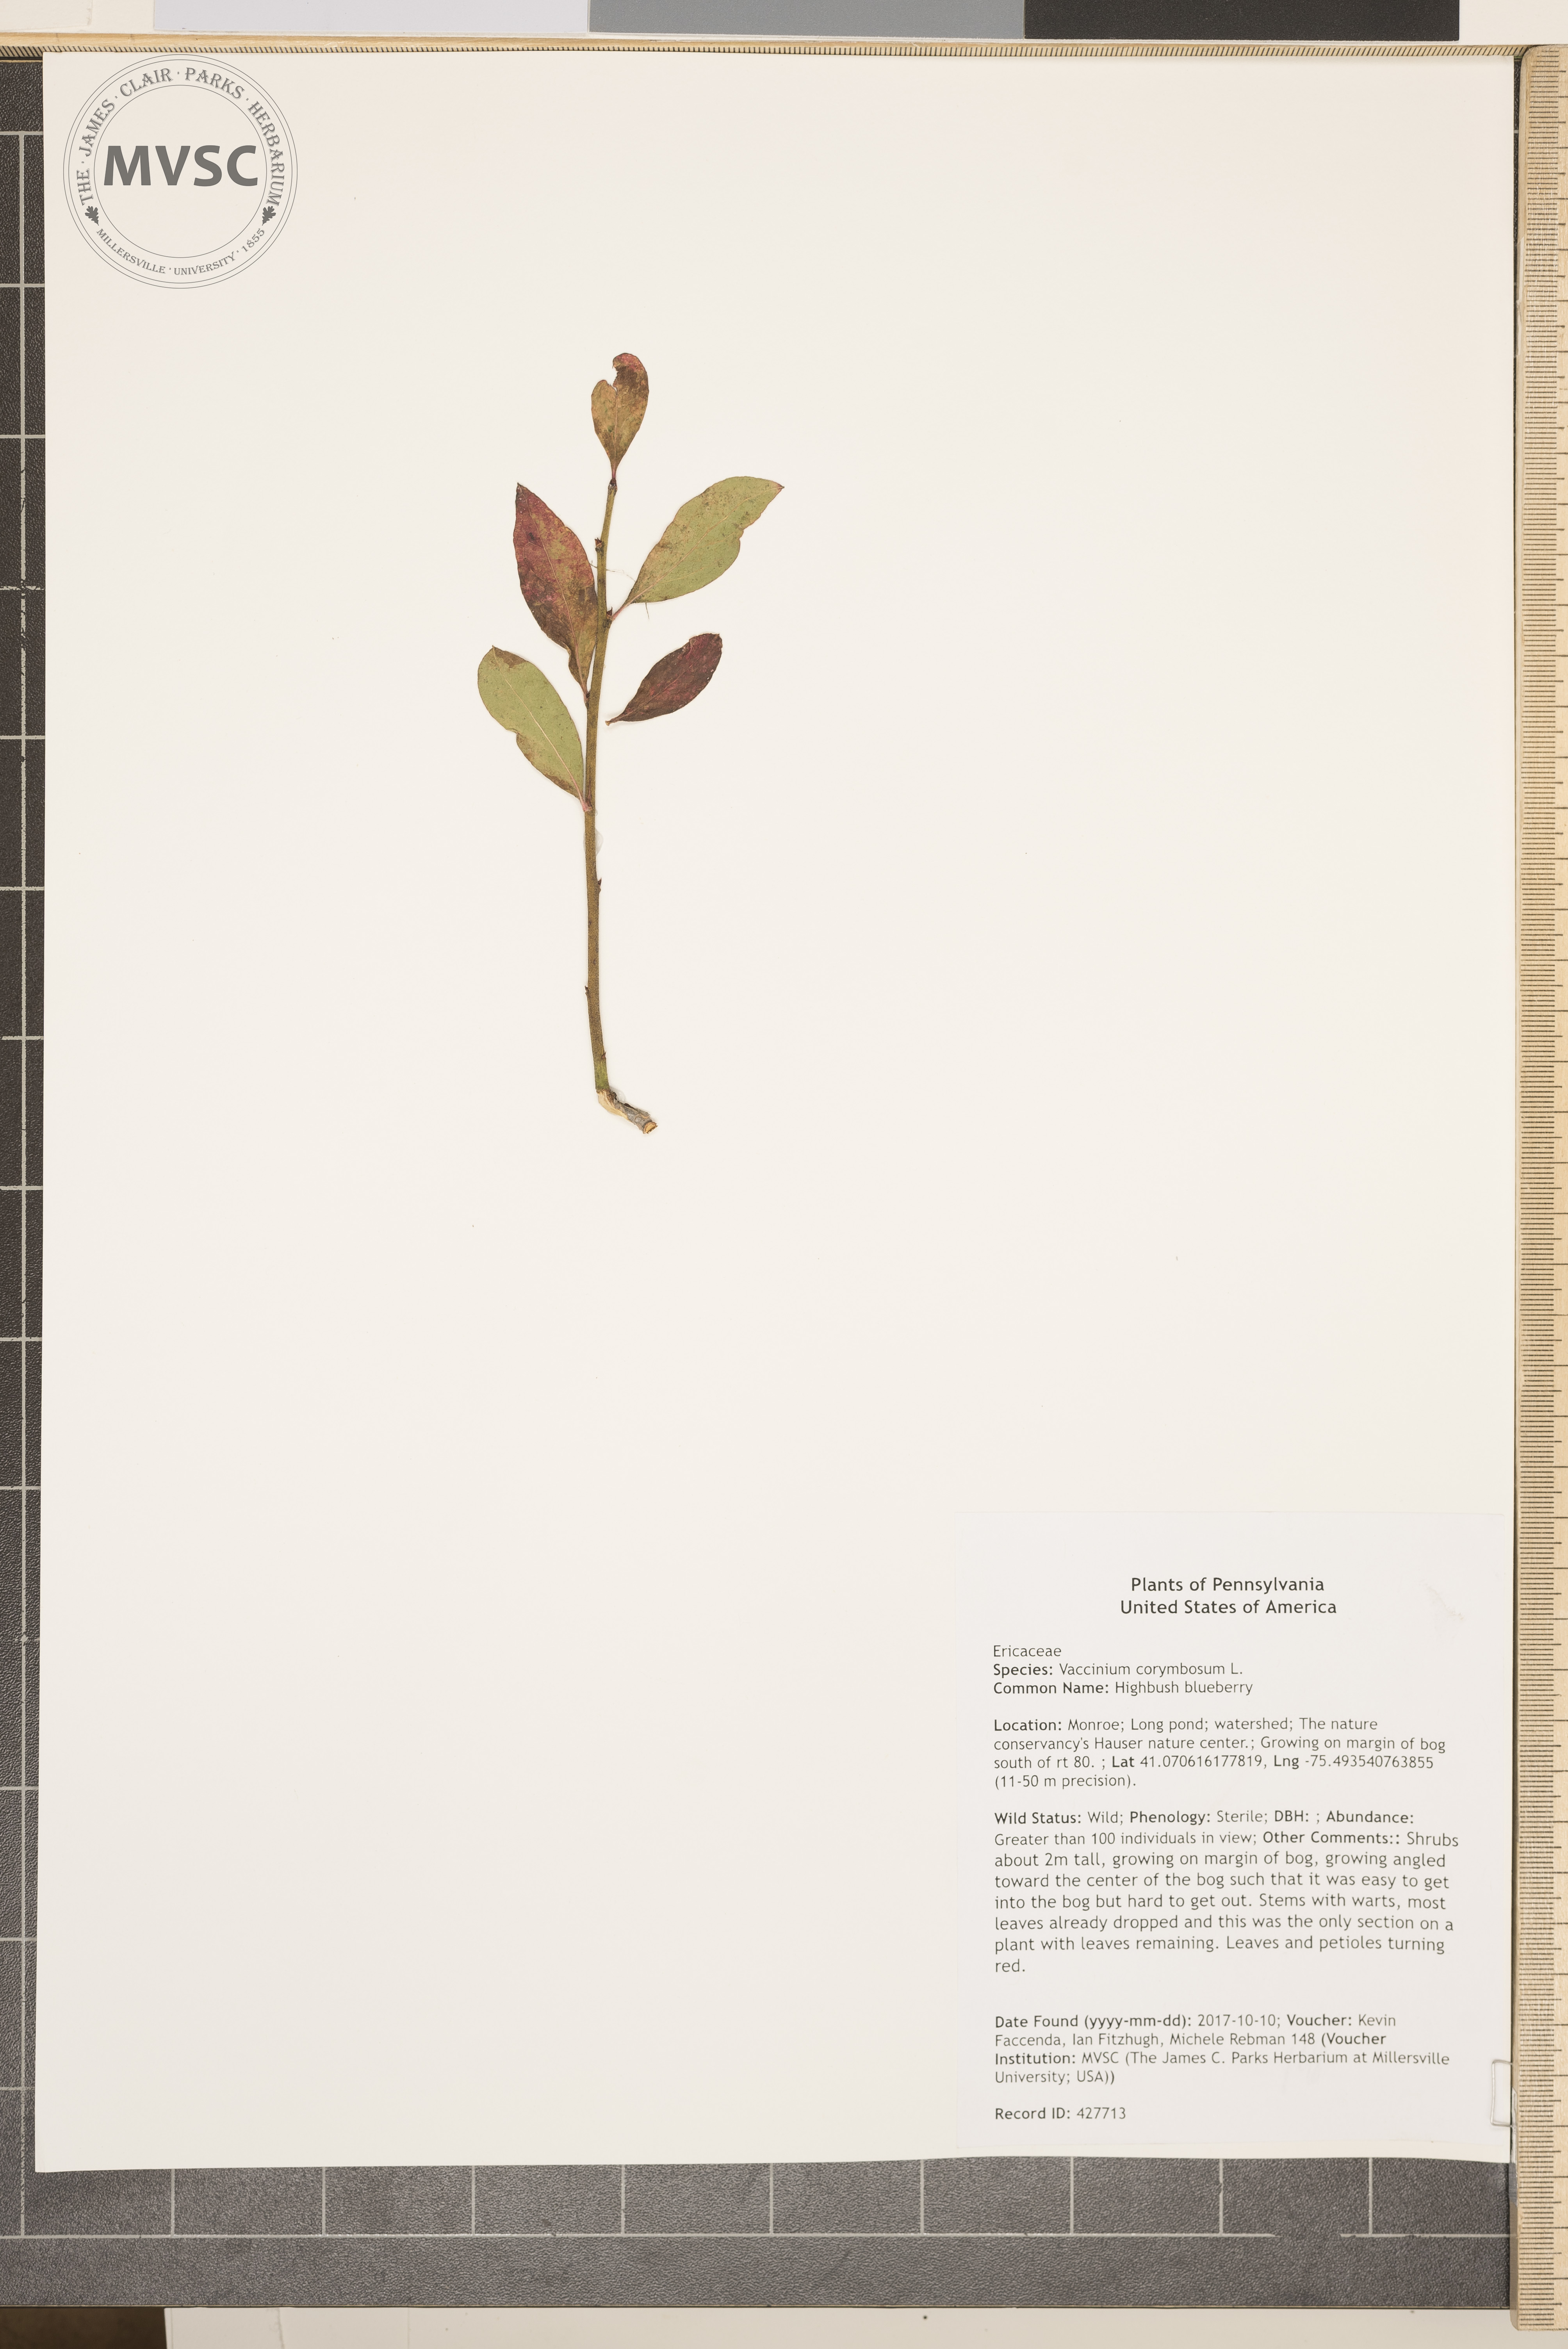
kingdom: Plantae
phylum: Tracheophyta
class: Magnoliopsida
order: Ericales
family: Ericaceae
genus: Vaccinium
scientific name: Vaccinium corymbosum
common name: Highbush blueberry
